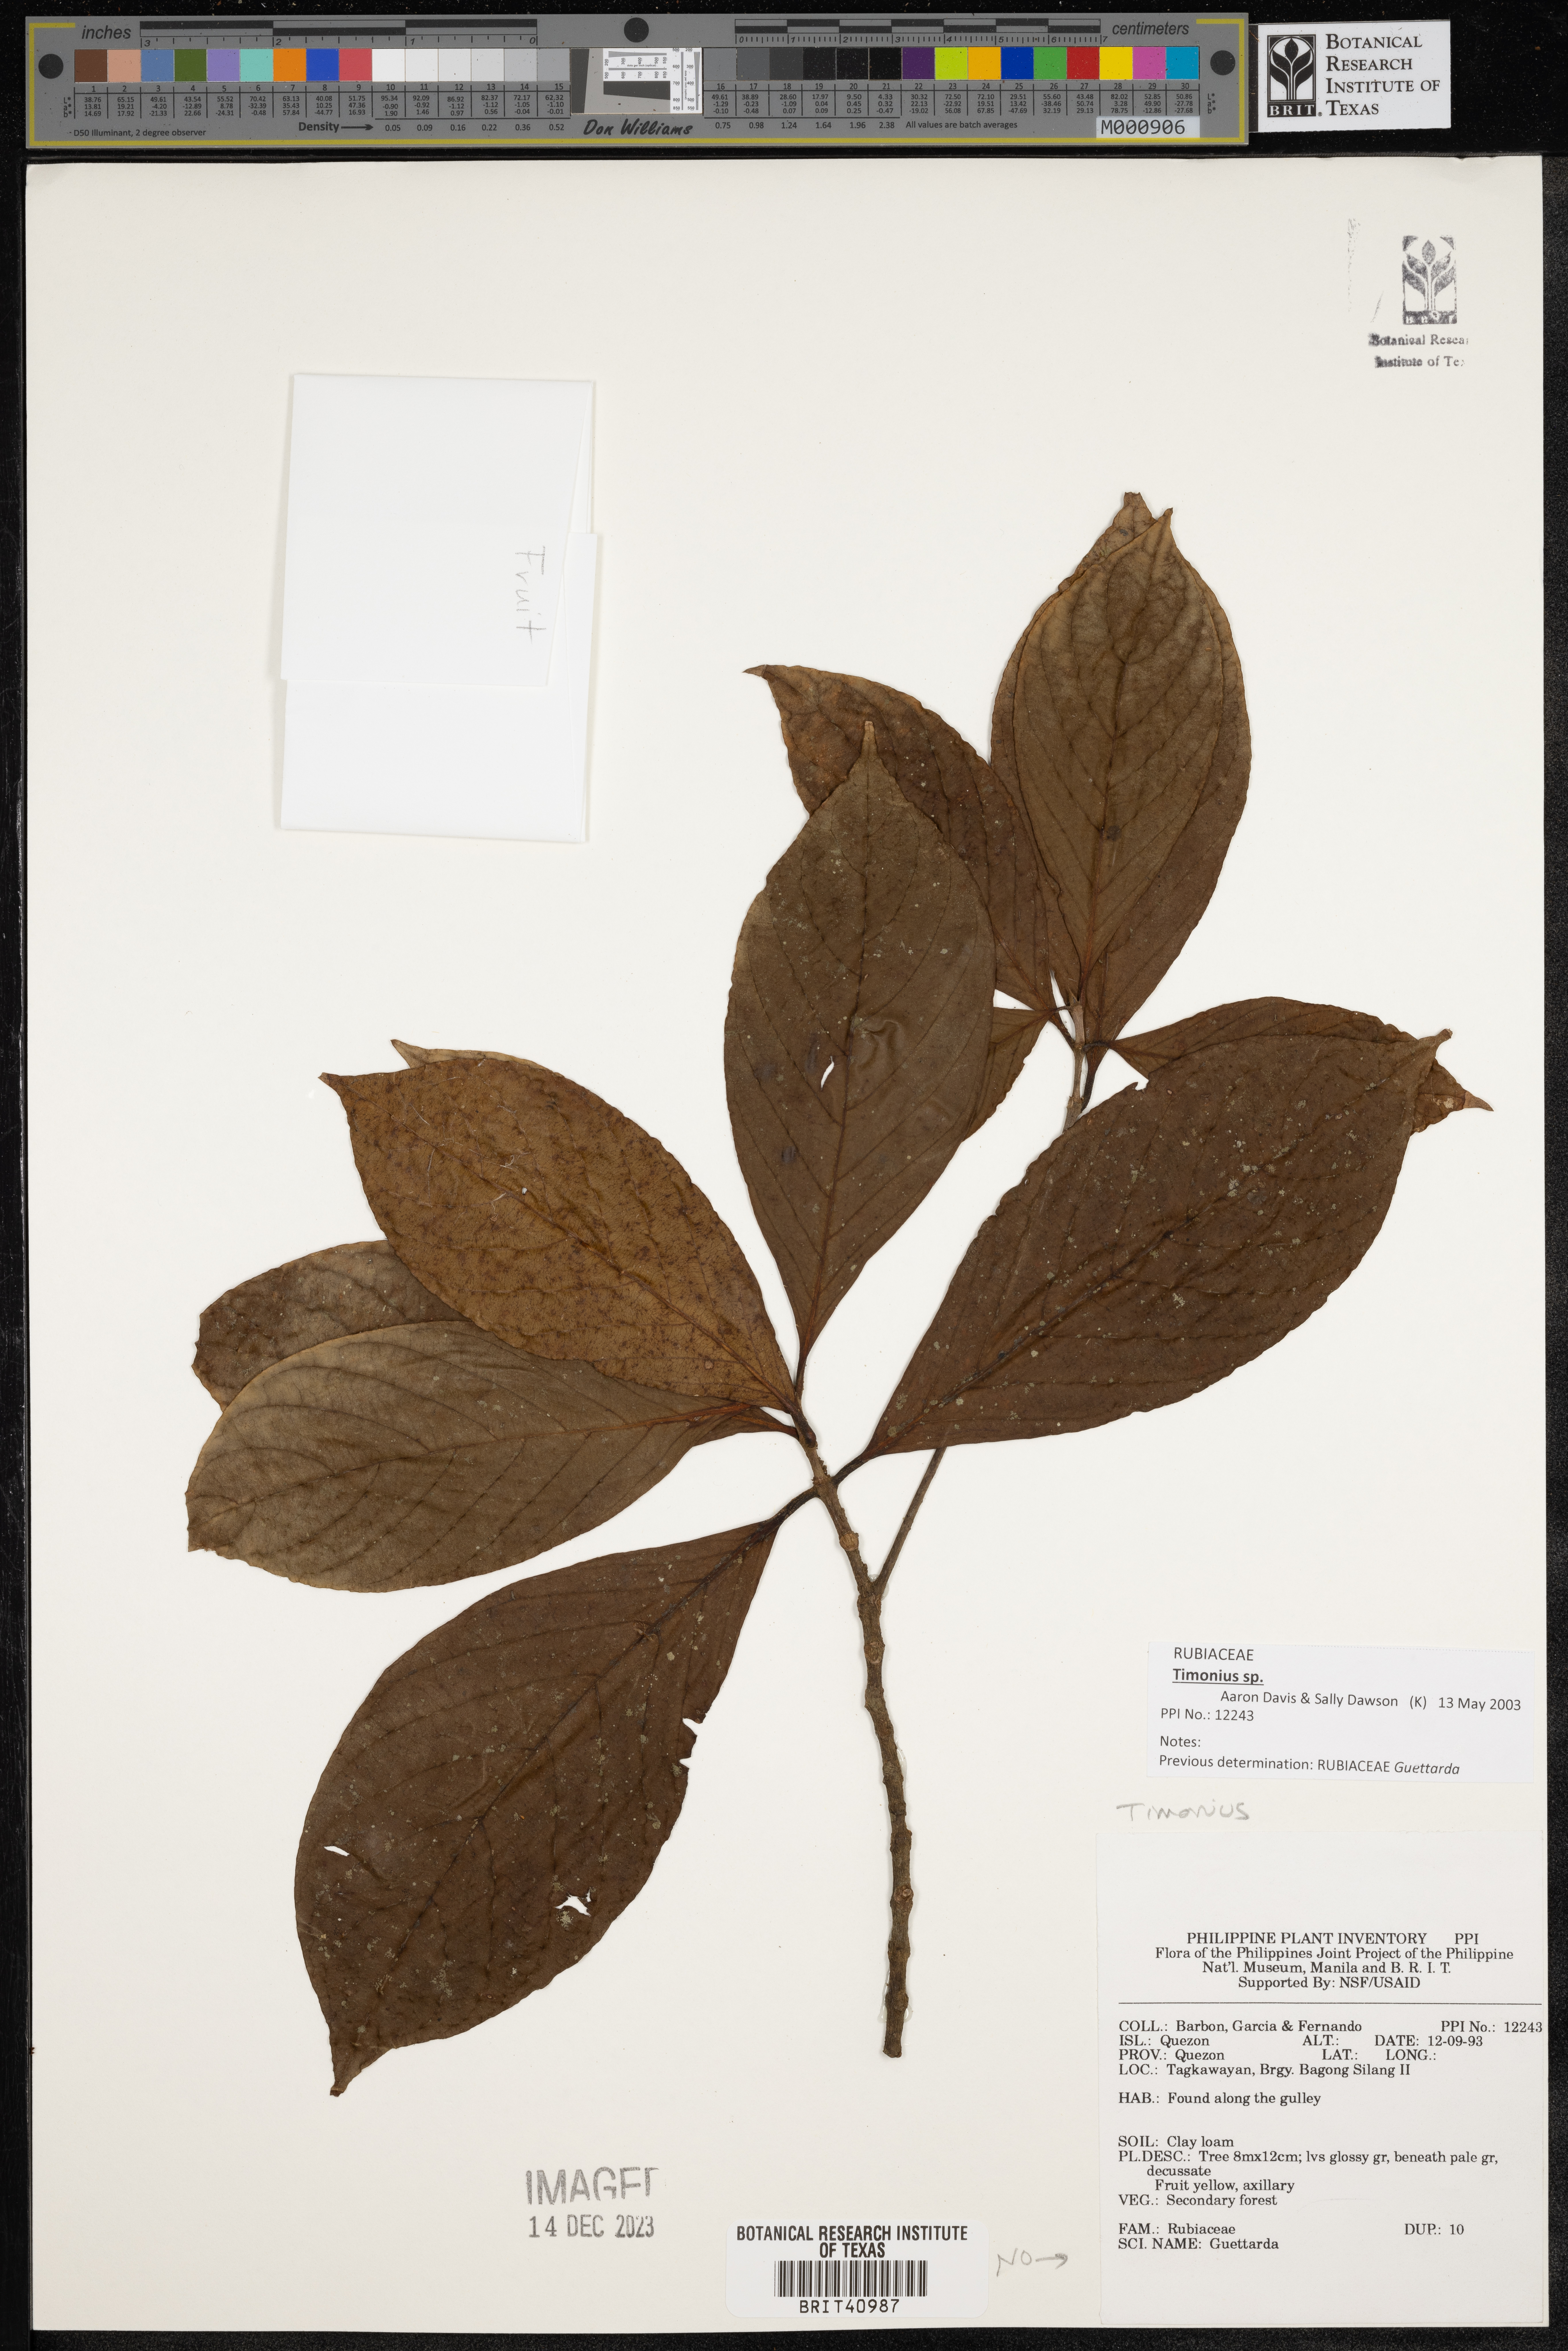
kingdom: Plantae
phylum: Tracheophyta
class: Magnoliopsida
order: Gentianales
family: Rubiaceae
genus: Timonius
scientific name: Timonius
